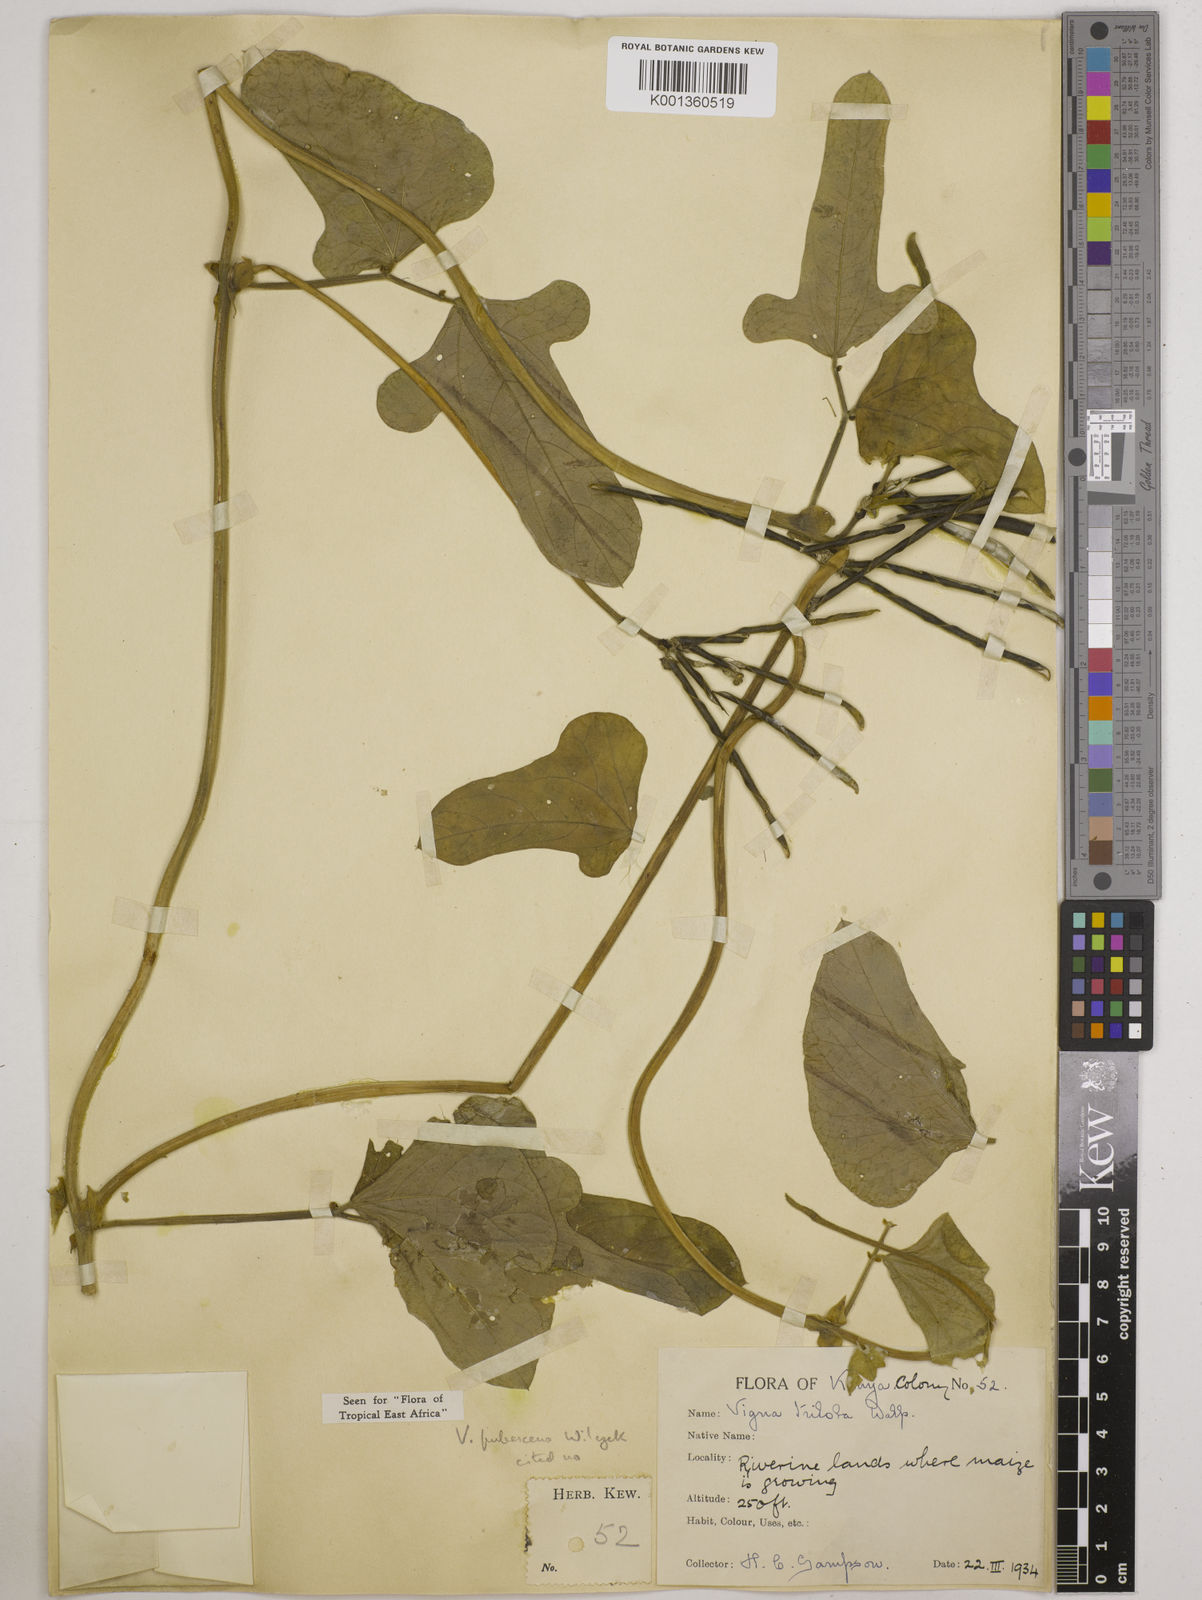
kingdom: Plantae
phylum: Tracheophyta
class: Magnoliopsida
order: Fabales
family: Fabaceae
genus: Vigna
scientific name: Vigna unguiculata
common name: Cowpea
